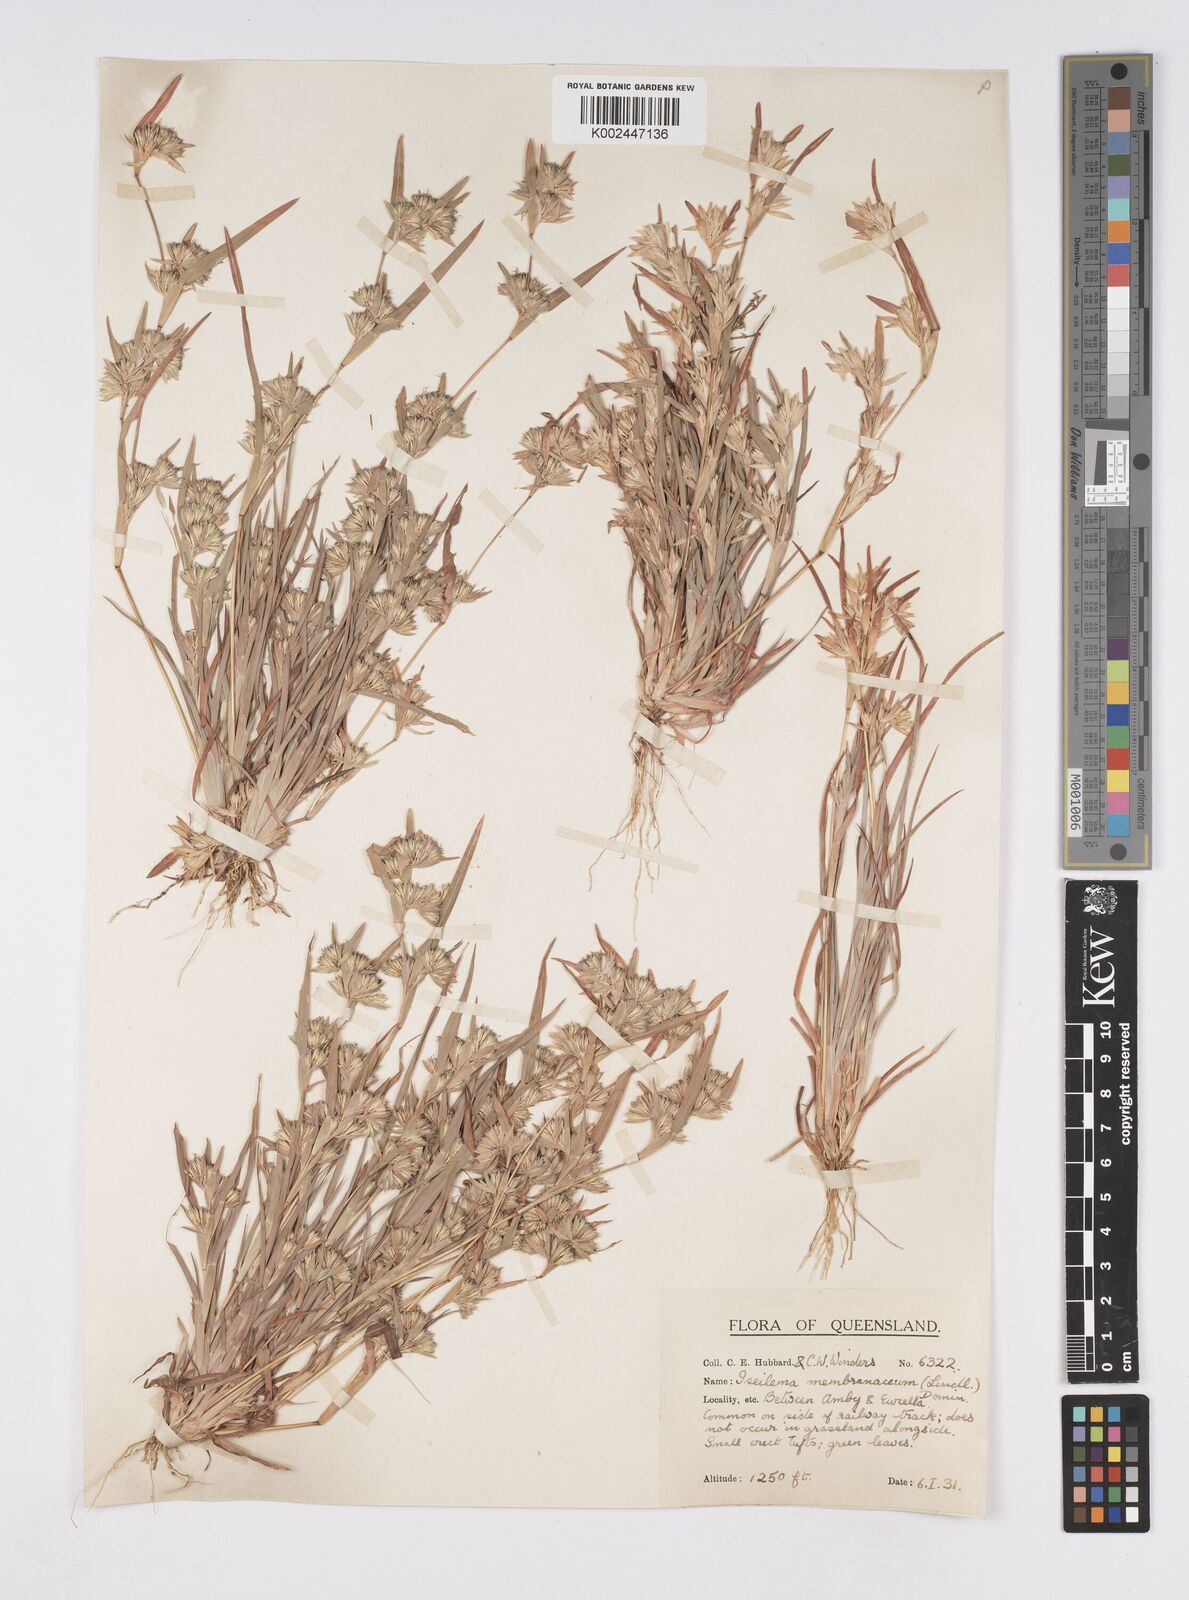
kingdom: Plantae
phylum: Tracheophyta
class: Liliopsida
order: Poales
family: Poaceae
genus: Iseilema
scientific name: Iseilema membranaceum
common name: Small flinders grass
